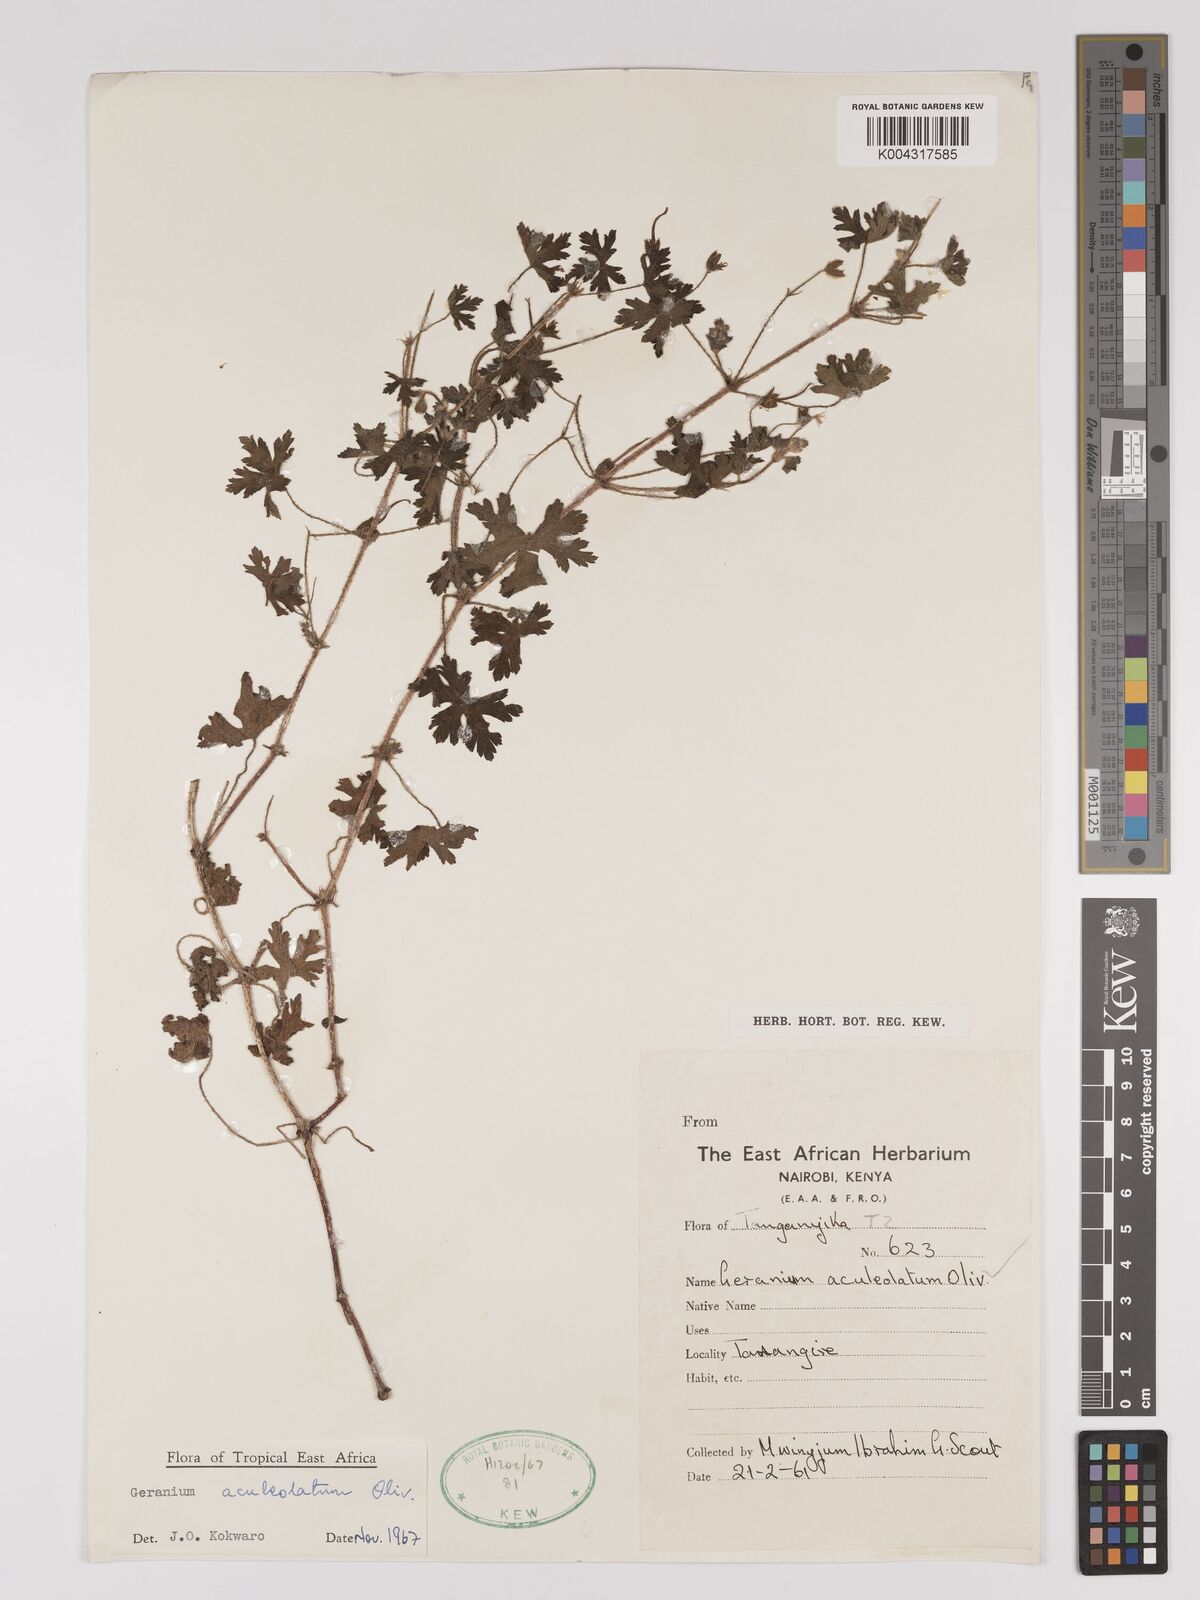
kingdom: Plantae
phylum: Tracheophyta
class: Magnoliopsida
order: Geraniales
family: Geraniaceae
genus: Geranium
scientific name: Geranium aculeolatum
